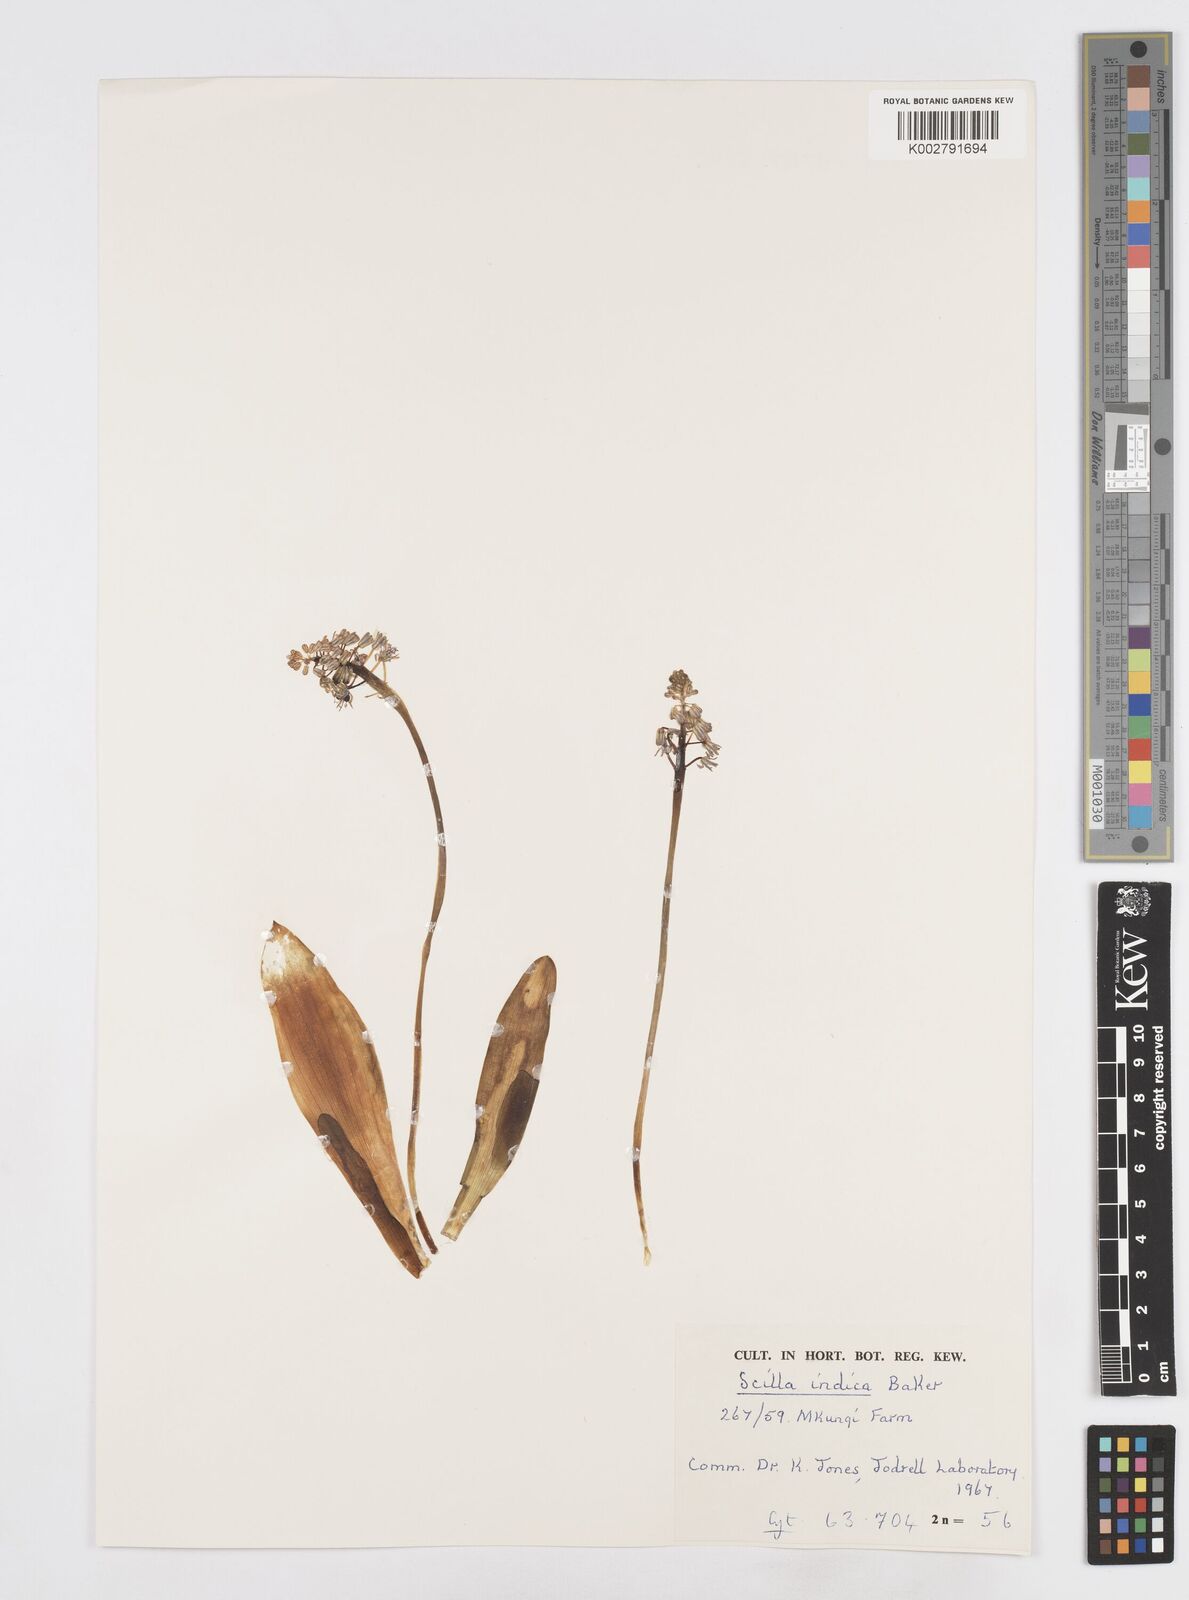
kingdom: Plantae
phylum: Tracheophyta
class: Liliopsida
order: Asparagales
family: Asparagaceae
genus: Ledebouria
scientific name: Ledebouria revoluta
